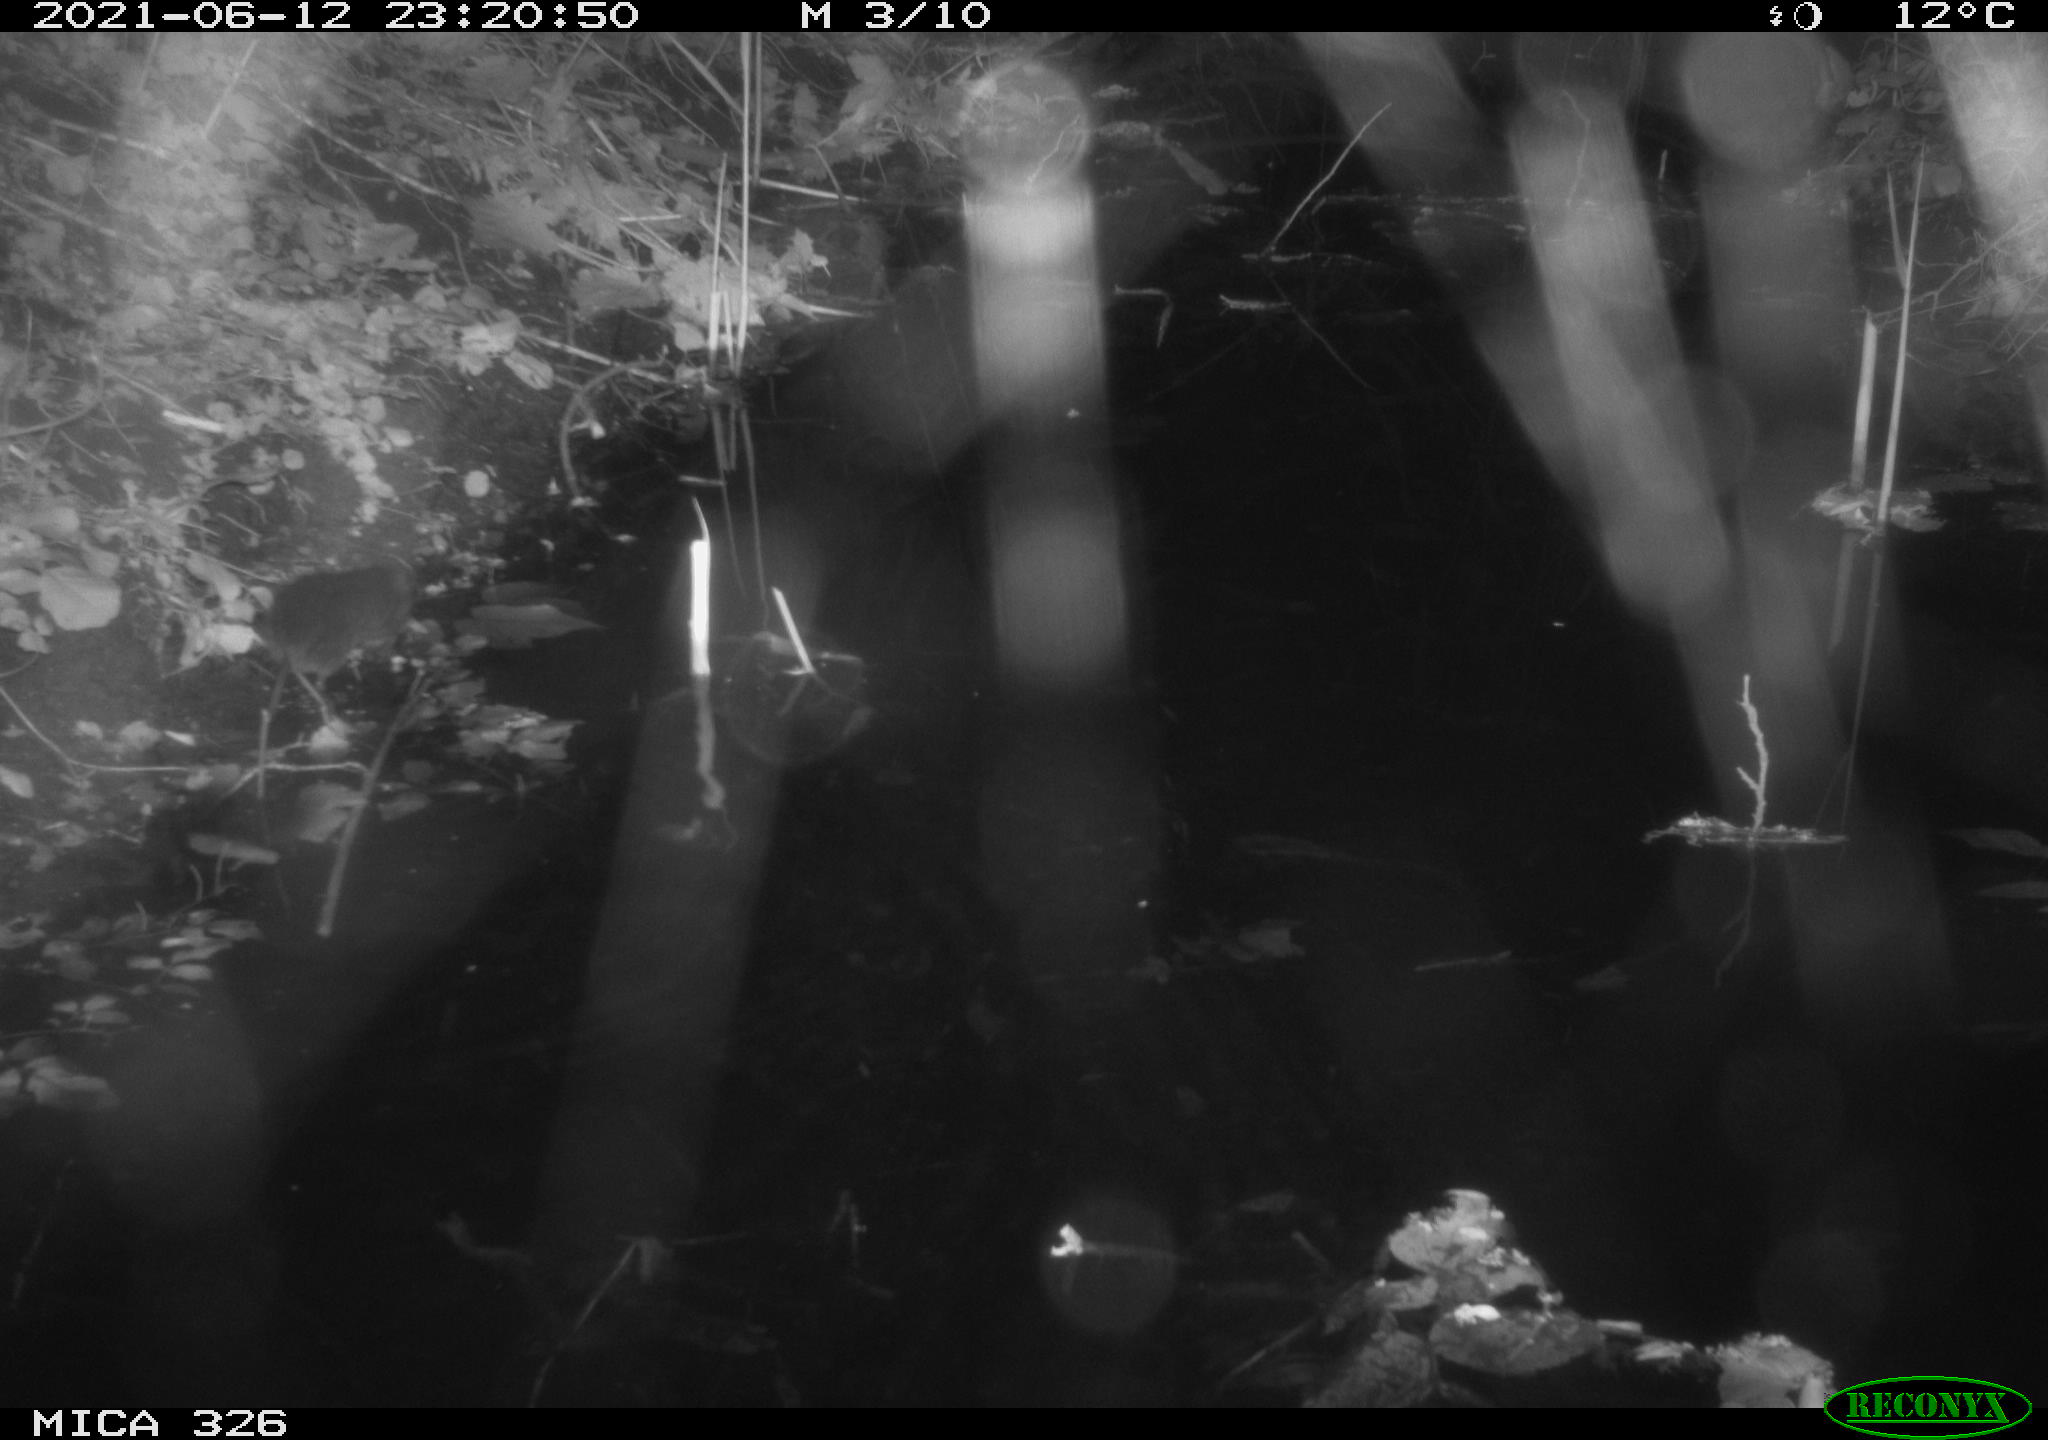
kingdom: Animalia
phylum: Chordata
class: Mammalia
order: Rodentia
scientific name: Rodentia
